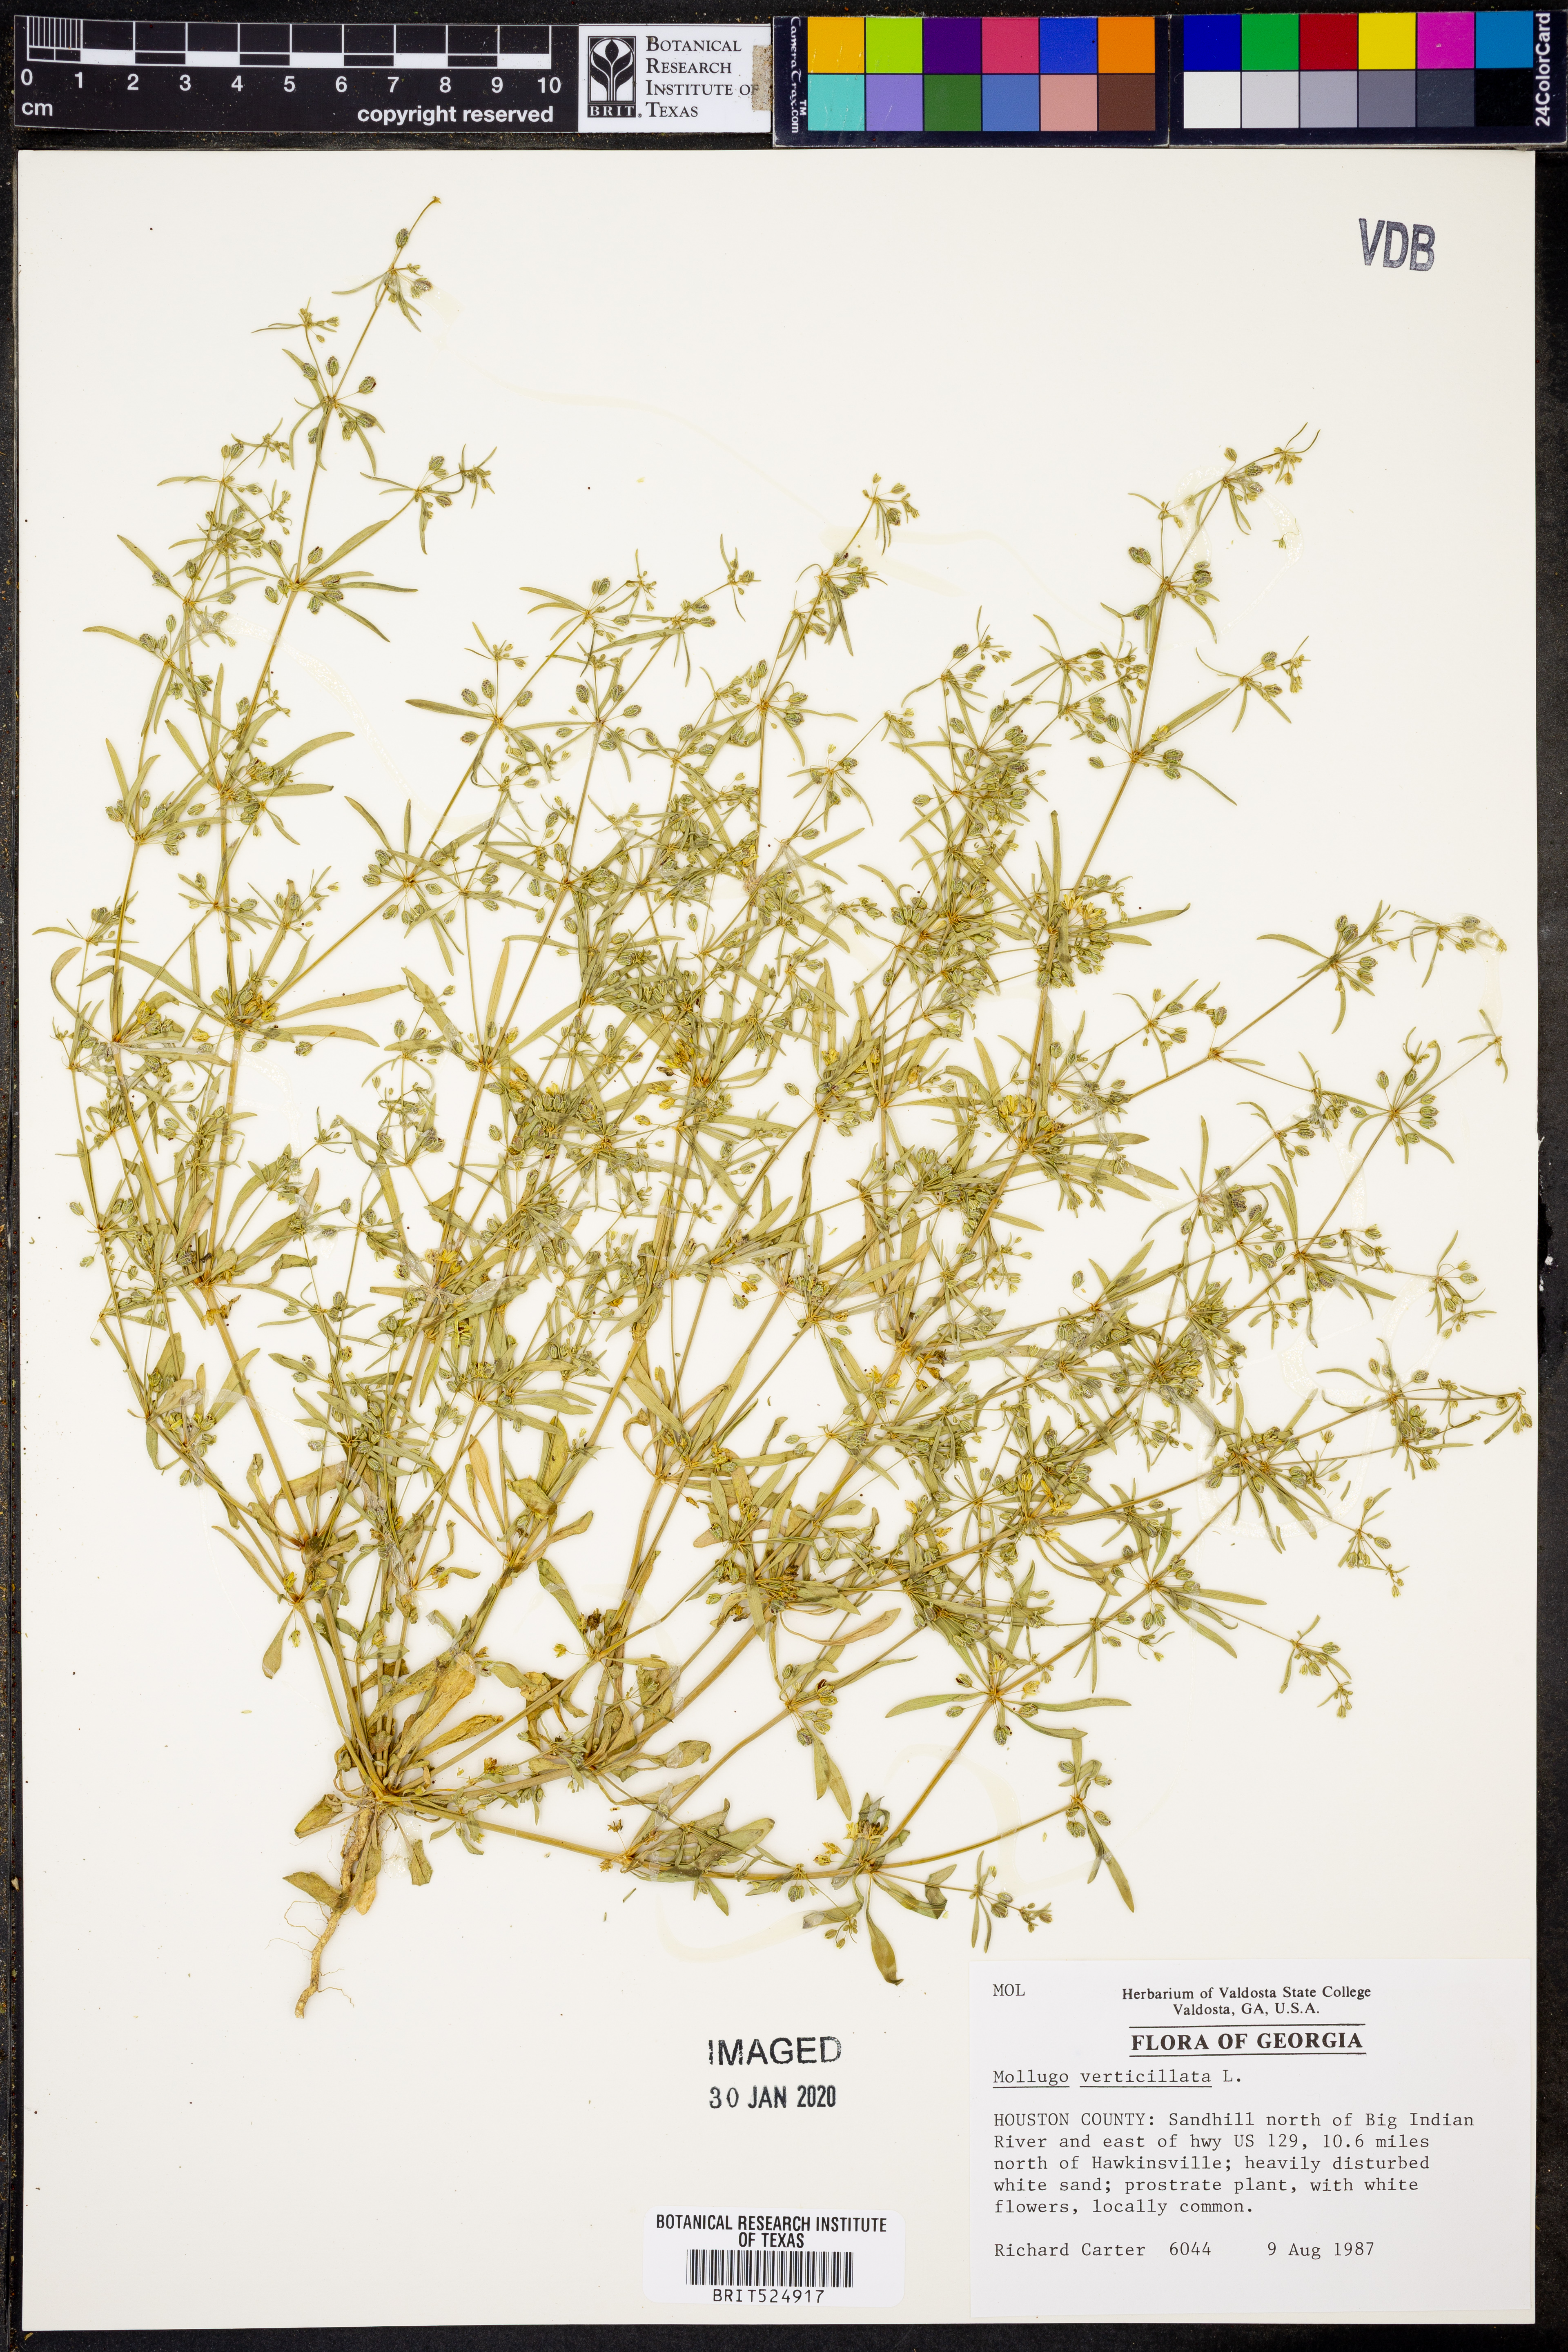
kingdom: Plantae
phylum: Tracheophyta
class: Magnoliopsida
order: Caryophyllales
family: Molluginaceae
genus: Mollugo
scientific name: Mollugo verticillata
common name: Green carpetweed
